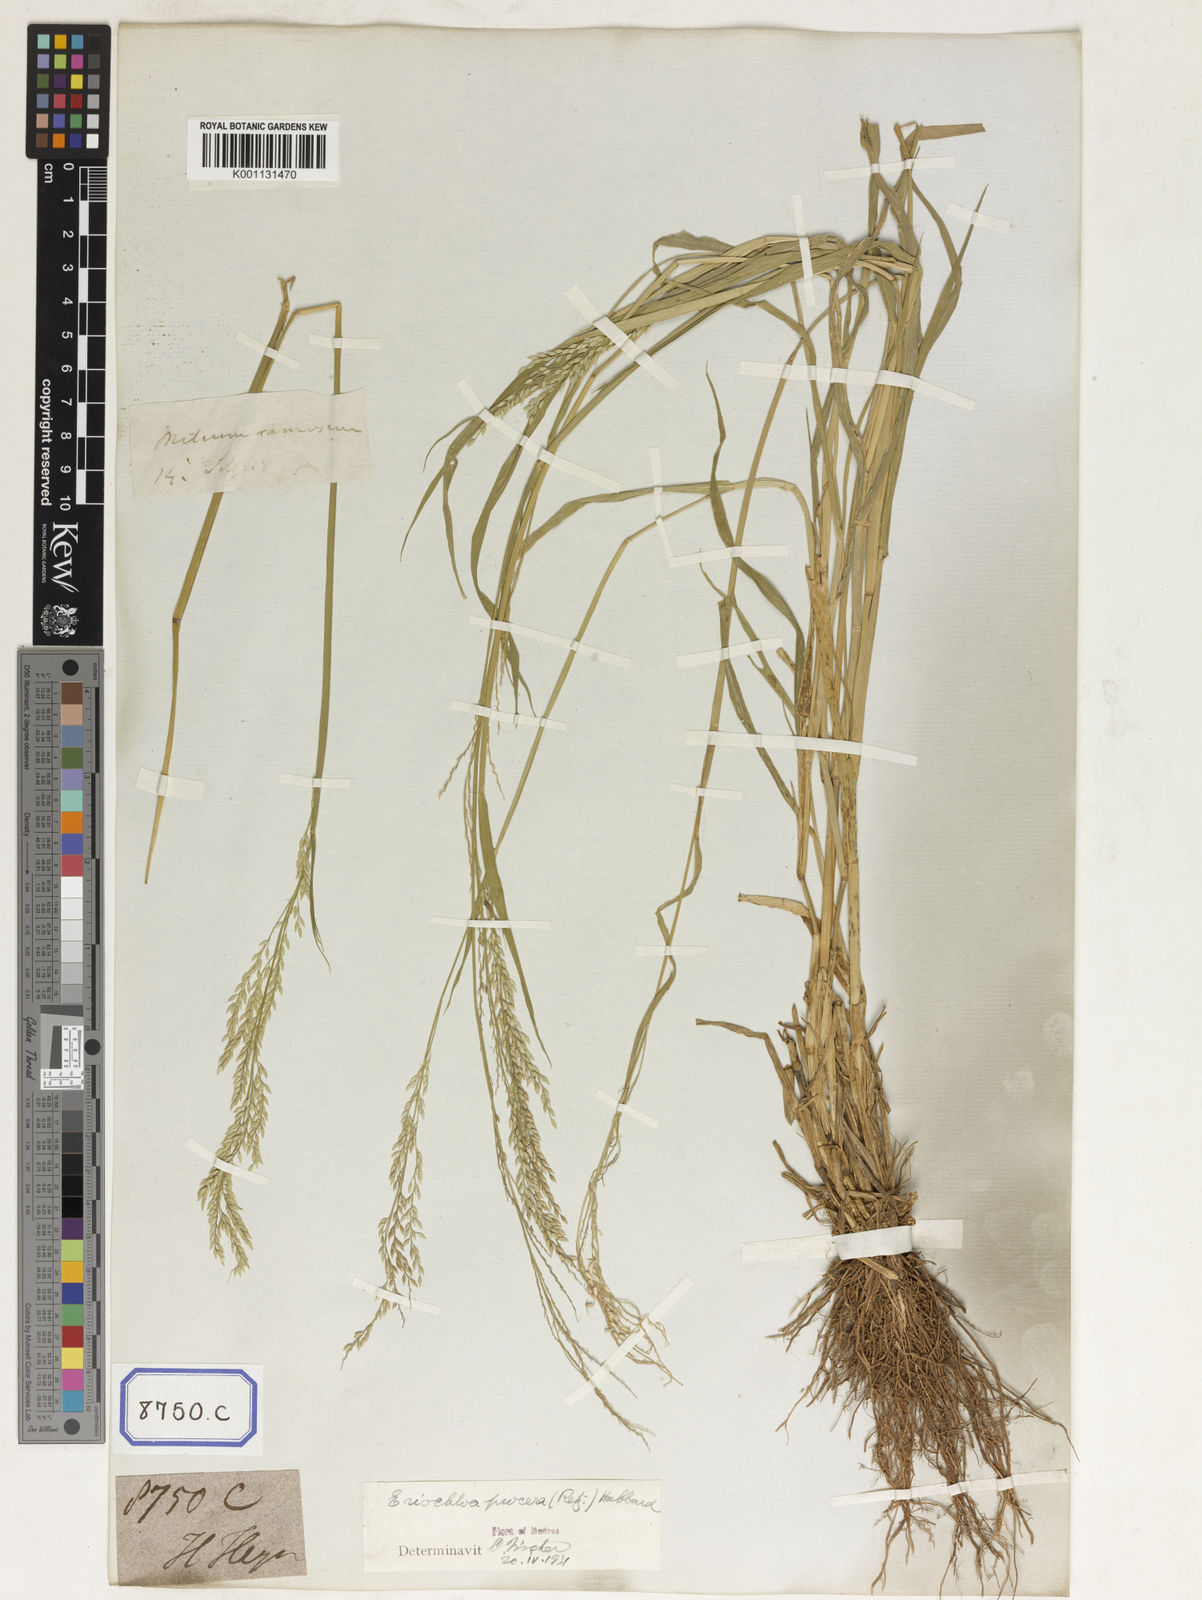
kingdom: Plantae
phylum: Tracheophyta
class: Liliopsida
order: Poales
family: Poaceae
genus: Eriochloa
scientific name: Eriochloa procera
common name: Spring grass
